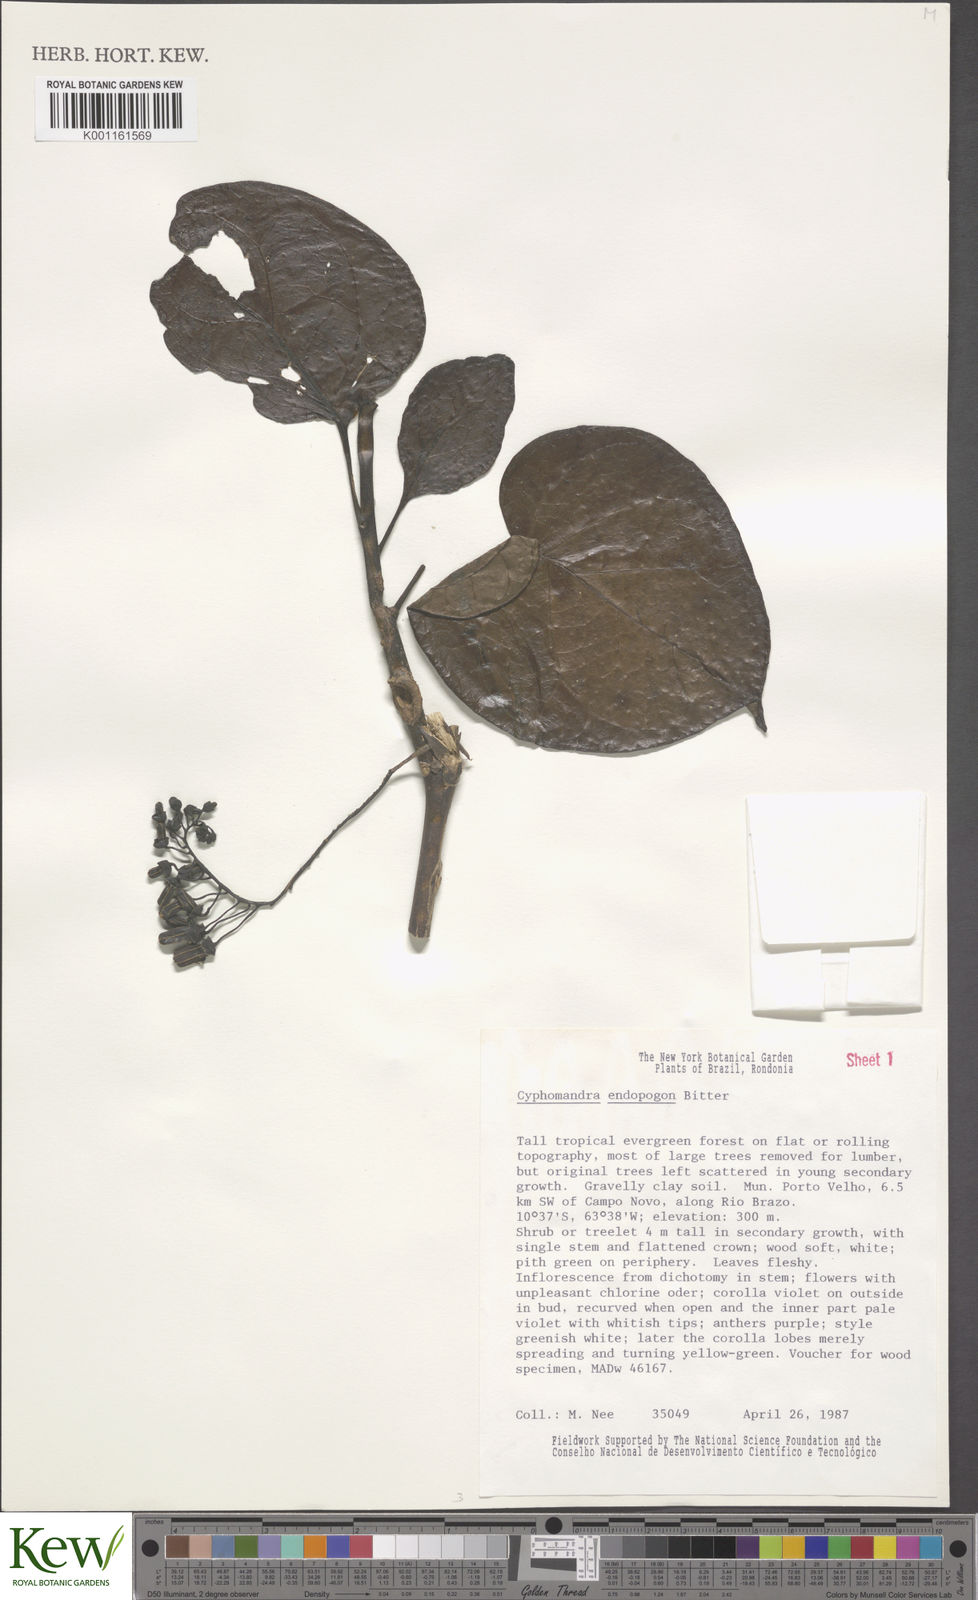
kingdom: Plantae
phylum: Tracheophyta
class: Magnoliopsida
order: Solanales
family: Solanaceae
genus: Solanum
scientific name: Solanum endopogon
